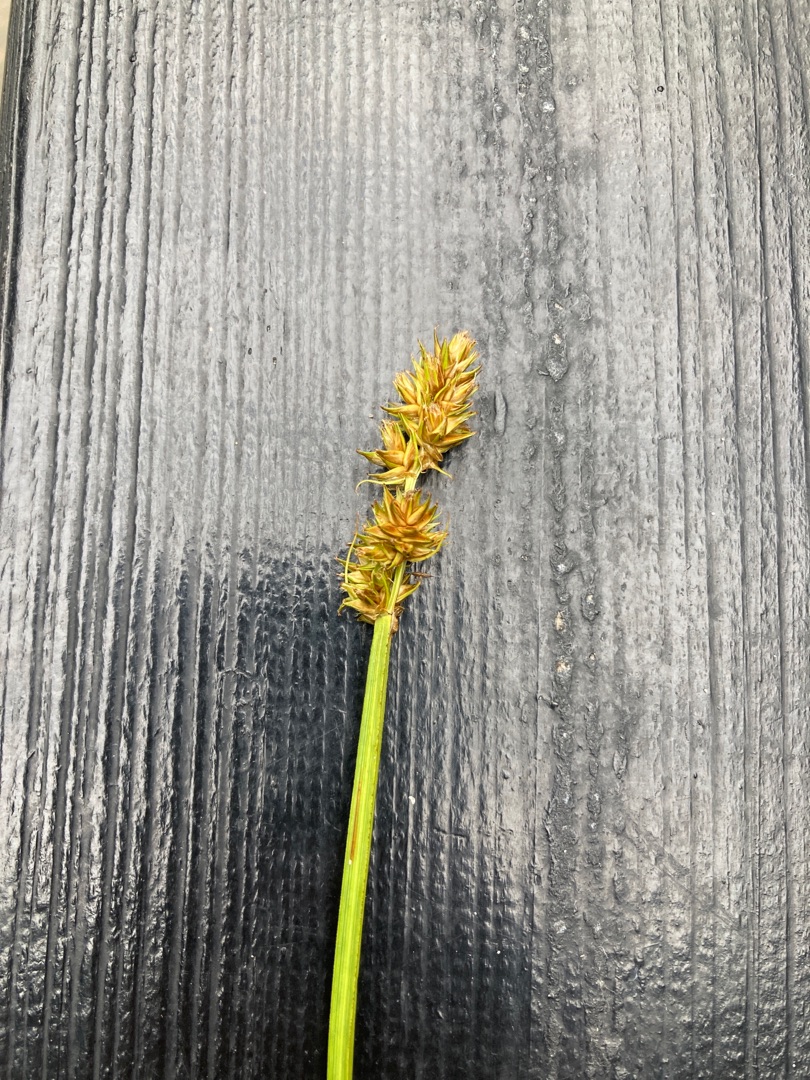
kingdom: Plantae
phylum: Tracheophyta
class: Liliopsida
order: Poales
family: Cyperaceae
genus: Carex
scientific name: Carex otrubae
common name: Sylt-star
